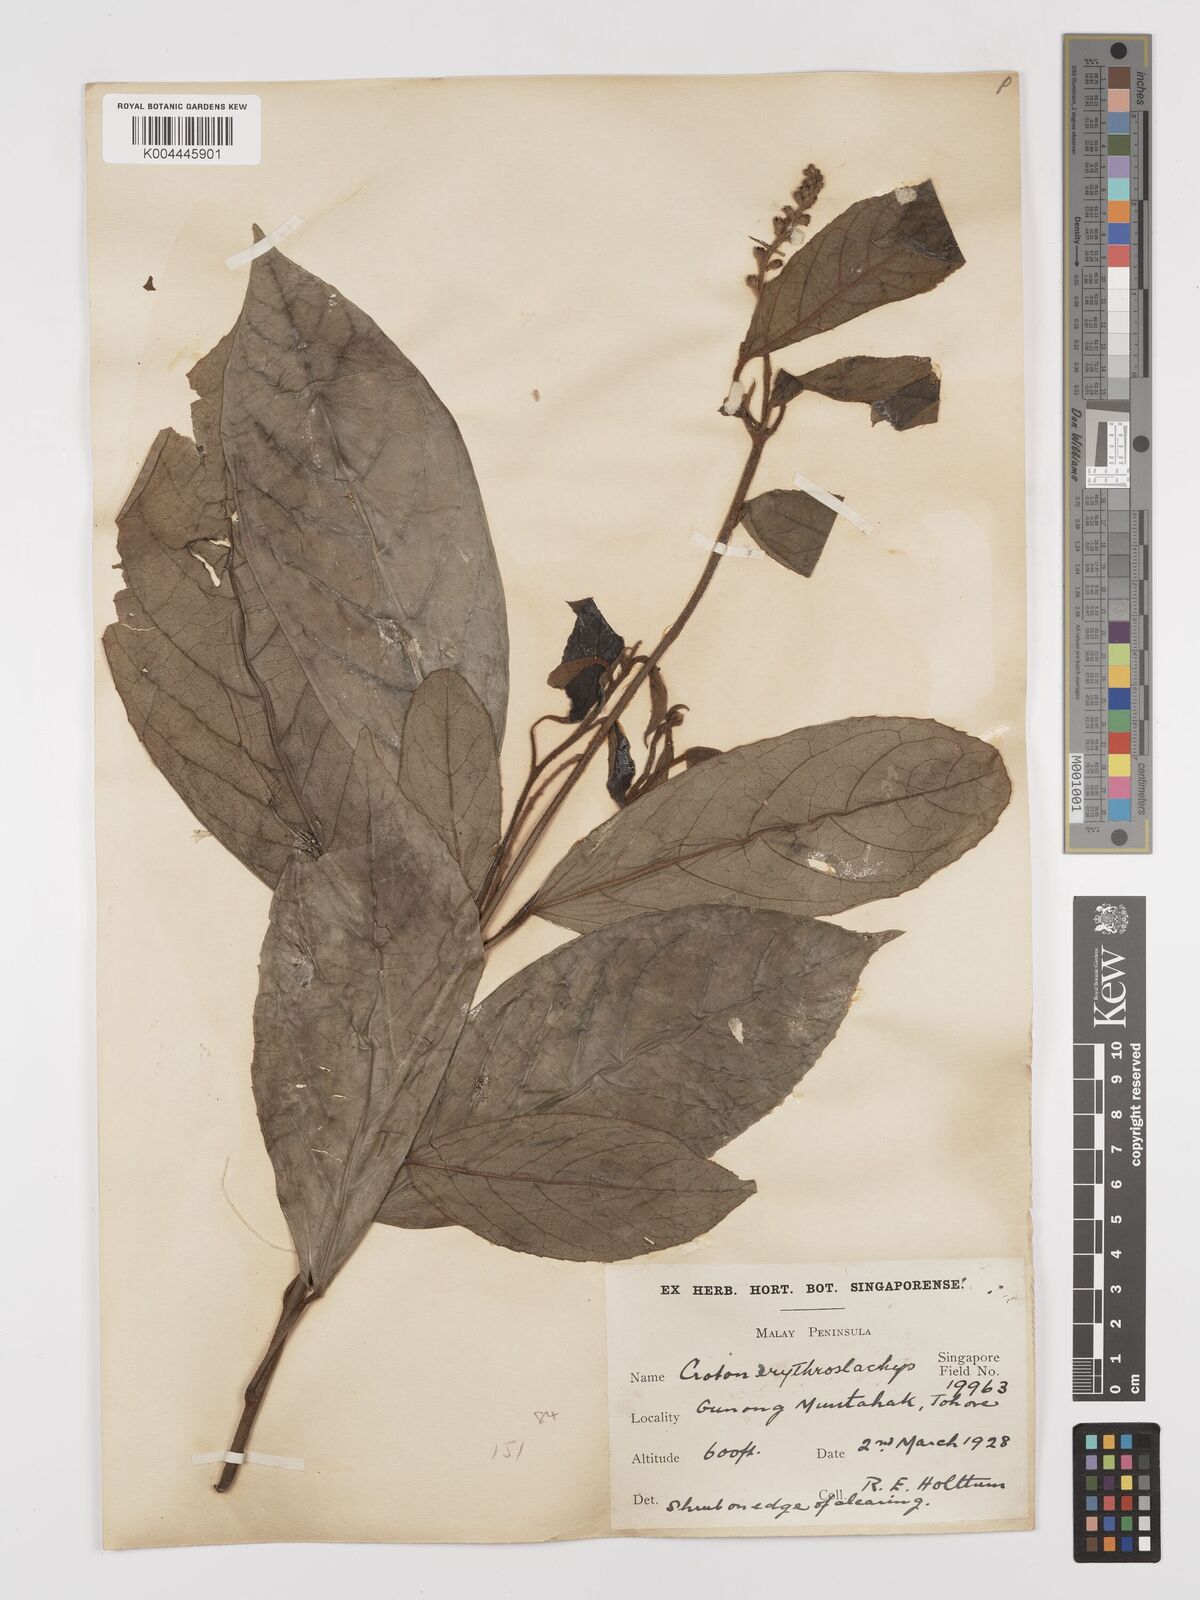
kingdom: Plantae
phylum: Tracheophyta
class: Magnoliopsida
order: Malpighiales
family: Euphorbiaceae
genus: Croton
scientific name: Croton erythrostachys
